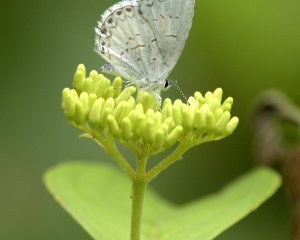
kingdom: Animalia
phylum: Arthropoda
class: Insecta
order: Lepidoptera
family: Lycaenidae
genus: Cyaniris
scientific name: Cyaniris neglecta
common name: Summer Azure
